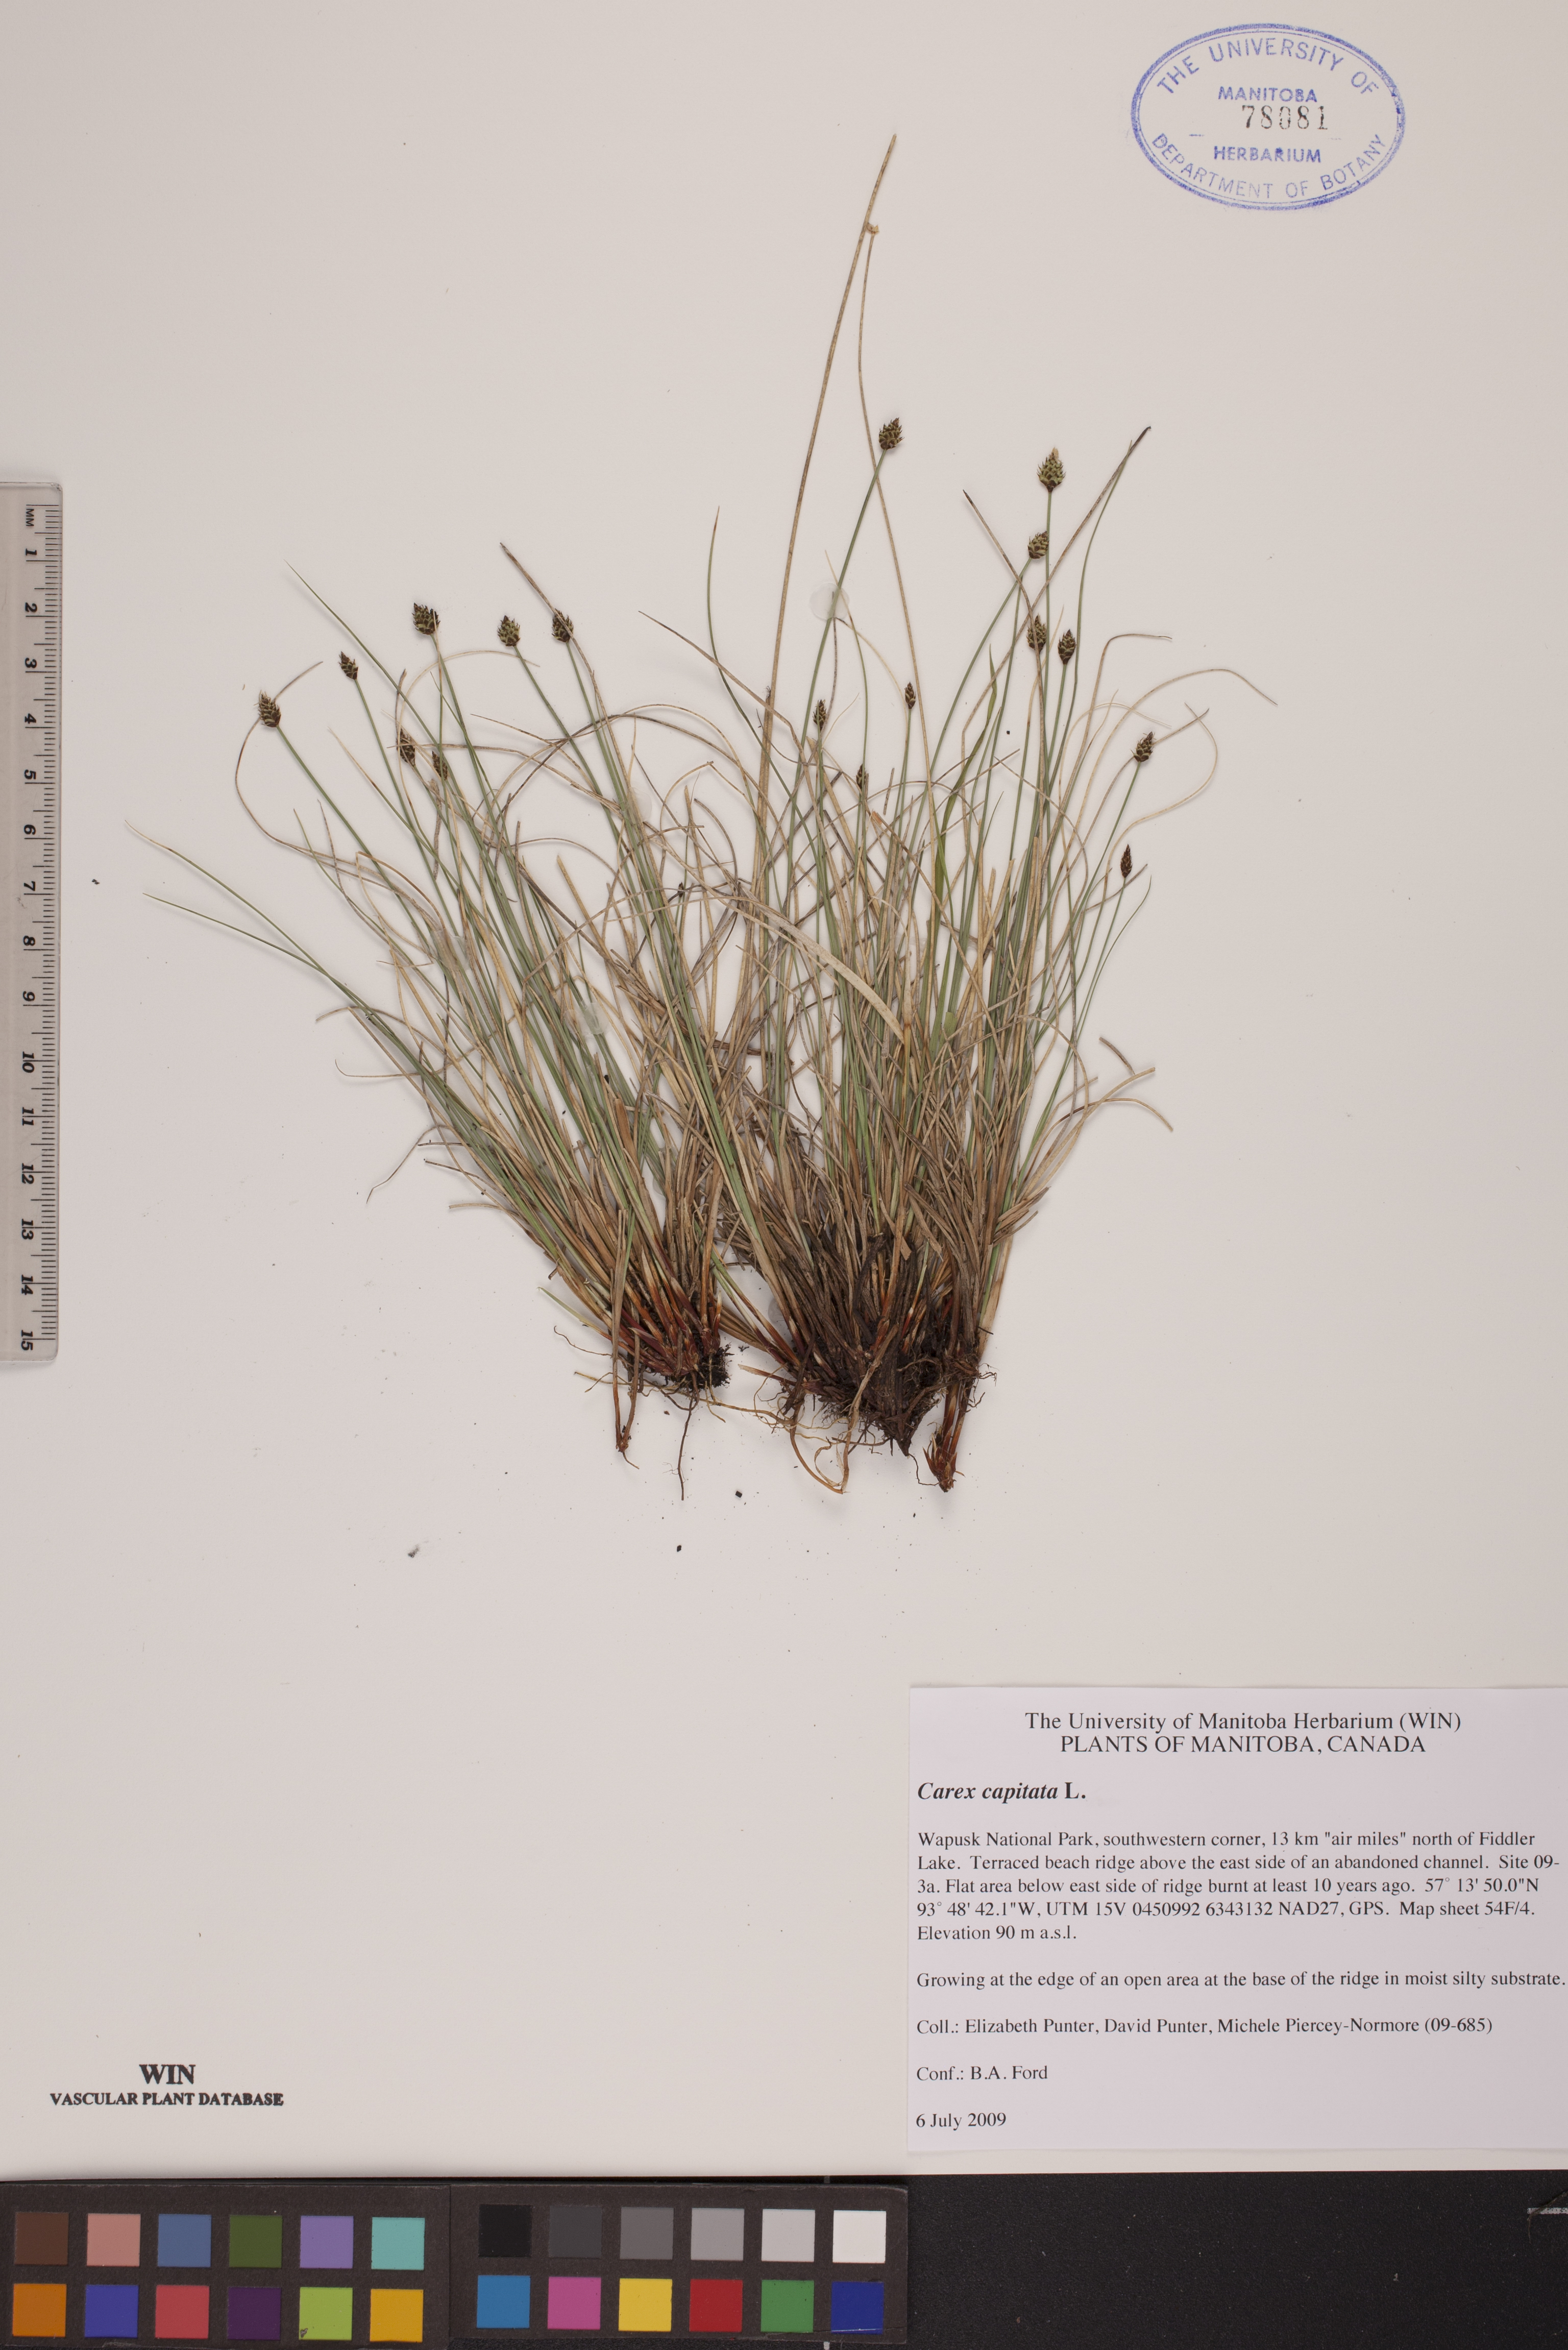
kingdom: Plantae
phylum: Tracheophyta
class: Liliopsida
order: Poales
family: Cyperaceae
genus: Carex
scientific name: Carex capitata
